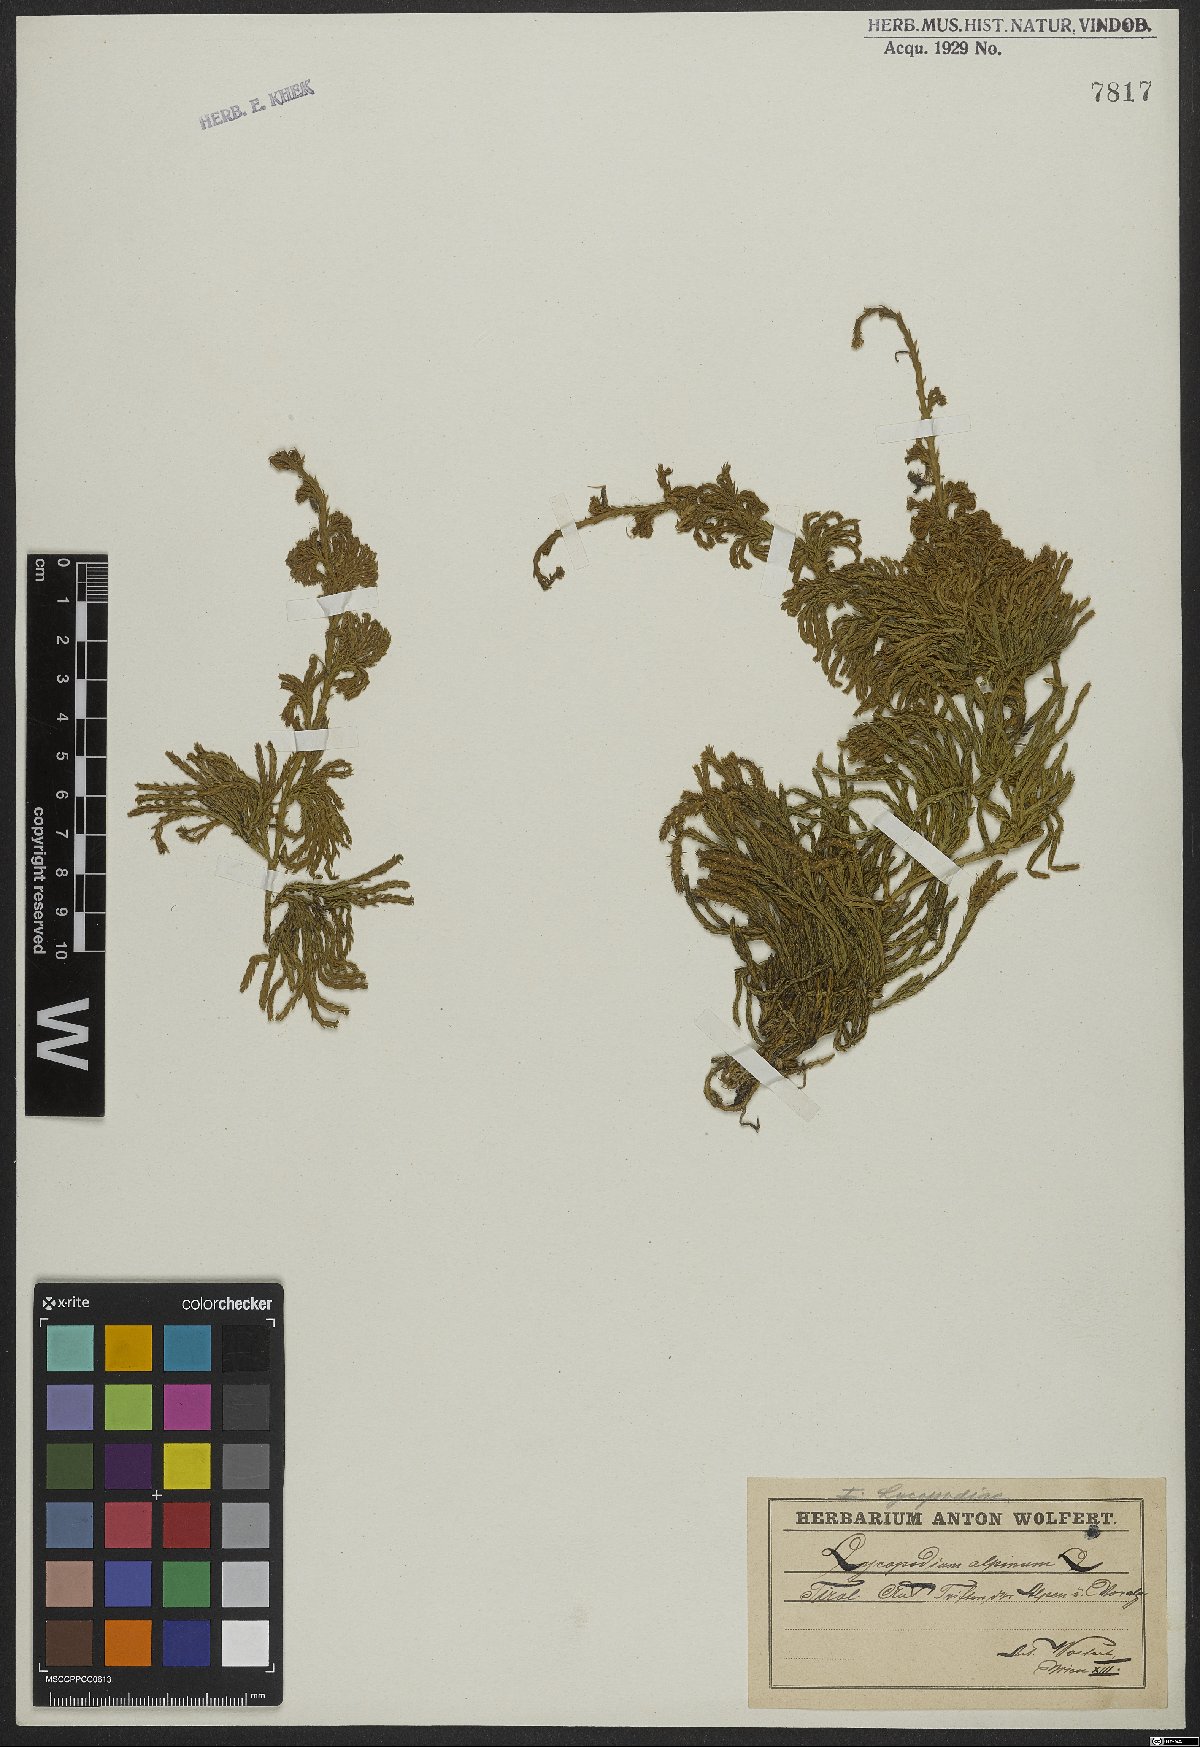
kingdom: Plantae
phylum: Tracheophyta
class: Lycopodiopsida
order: Lycopodiales
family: Lycopodiaceae
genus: Diphasiastrum
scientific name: Diphasiastrum alpinum
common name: Alpine clubmoss
